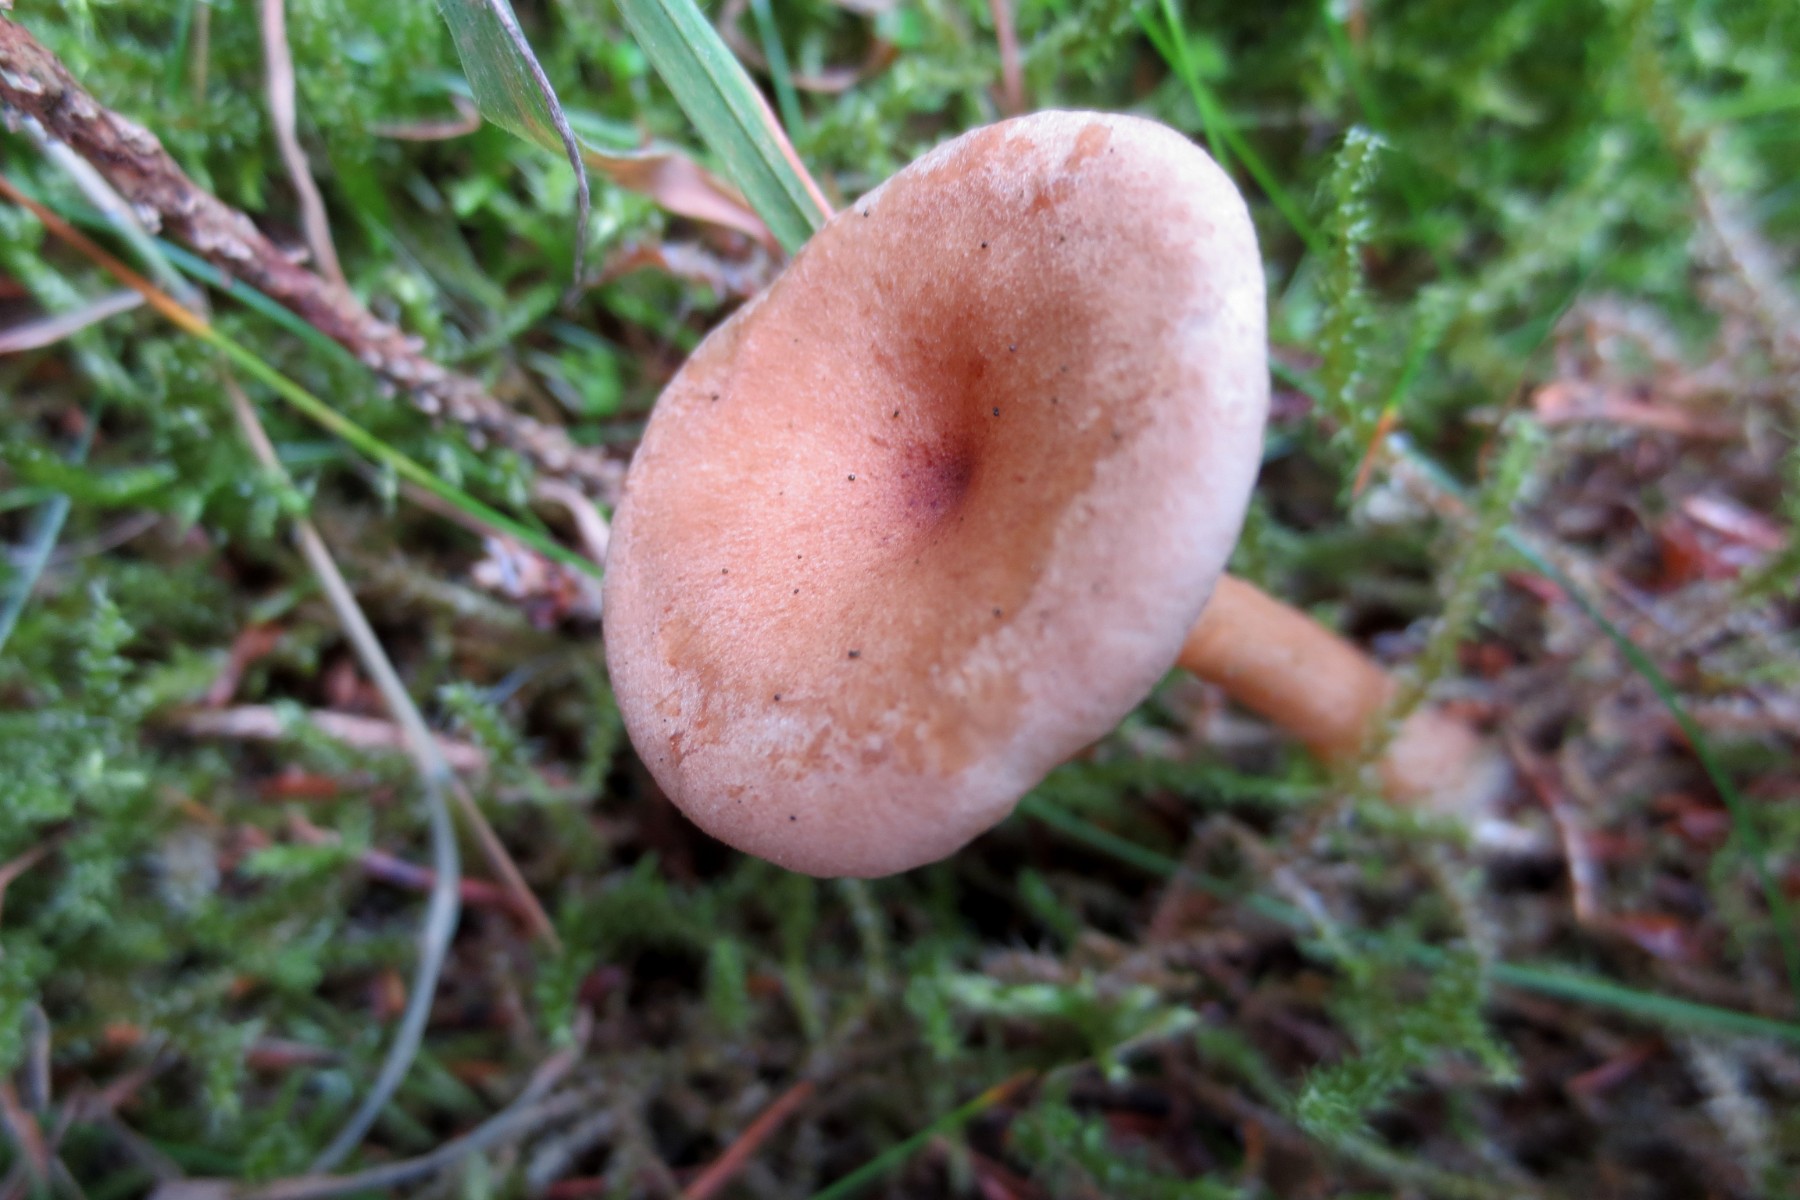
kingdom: Fungi
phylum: Basidiomycota
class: Agaricomycetes
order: Agaricales
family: Tricholomataceae
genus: Clitocybe
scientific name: Clitocybe costata
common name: brunstokket tragthat
